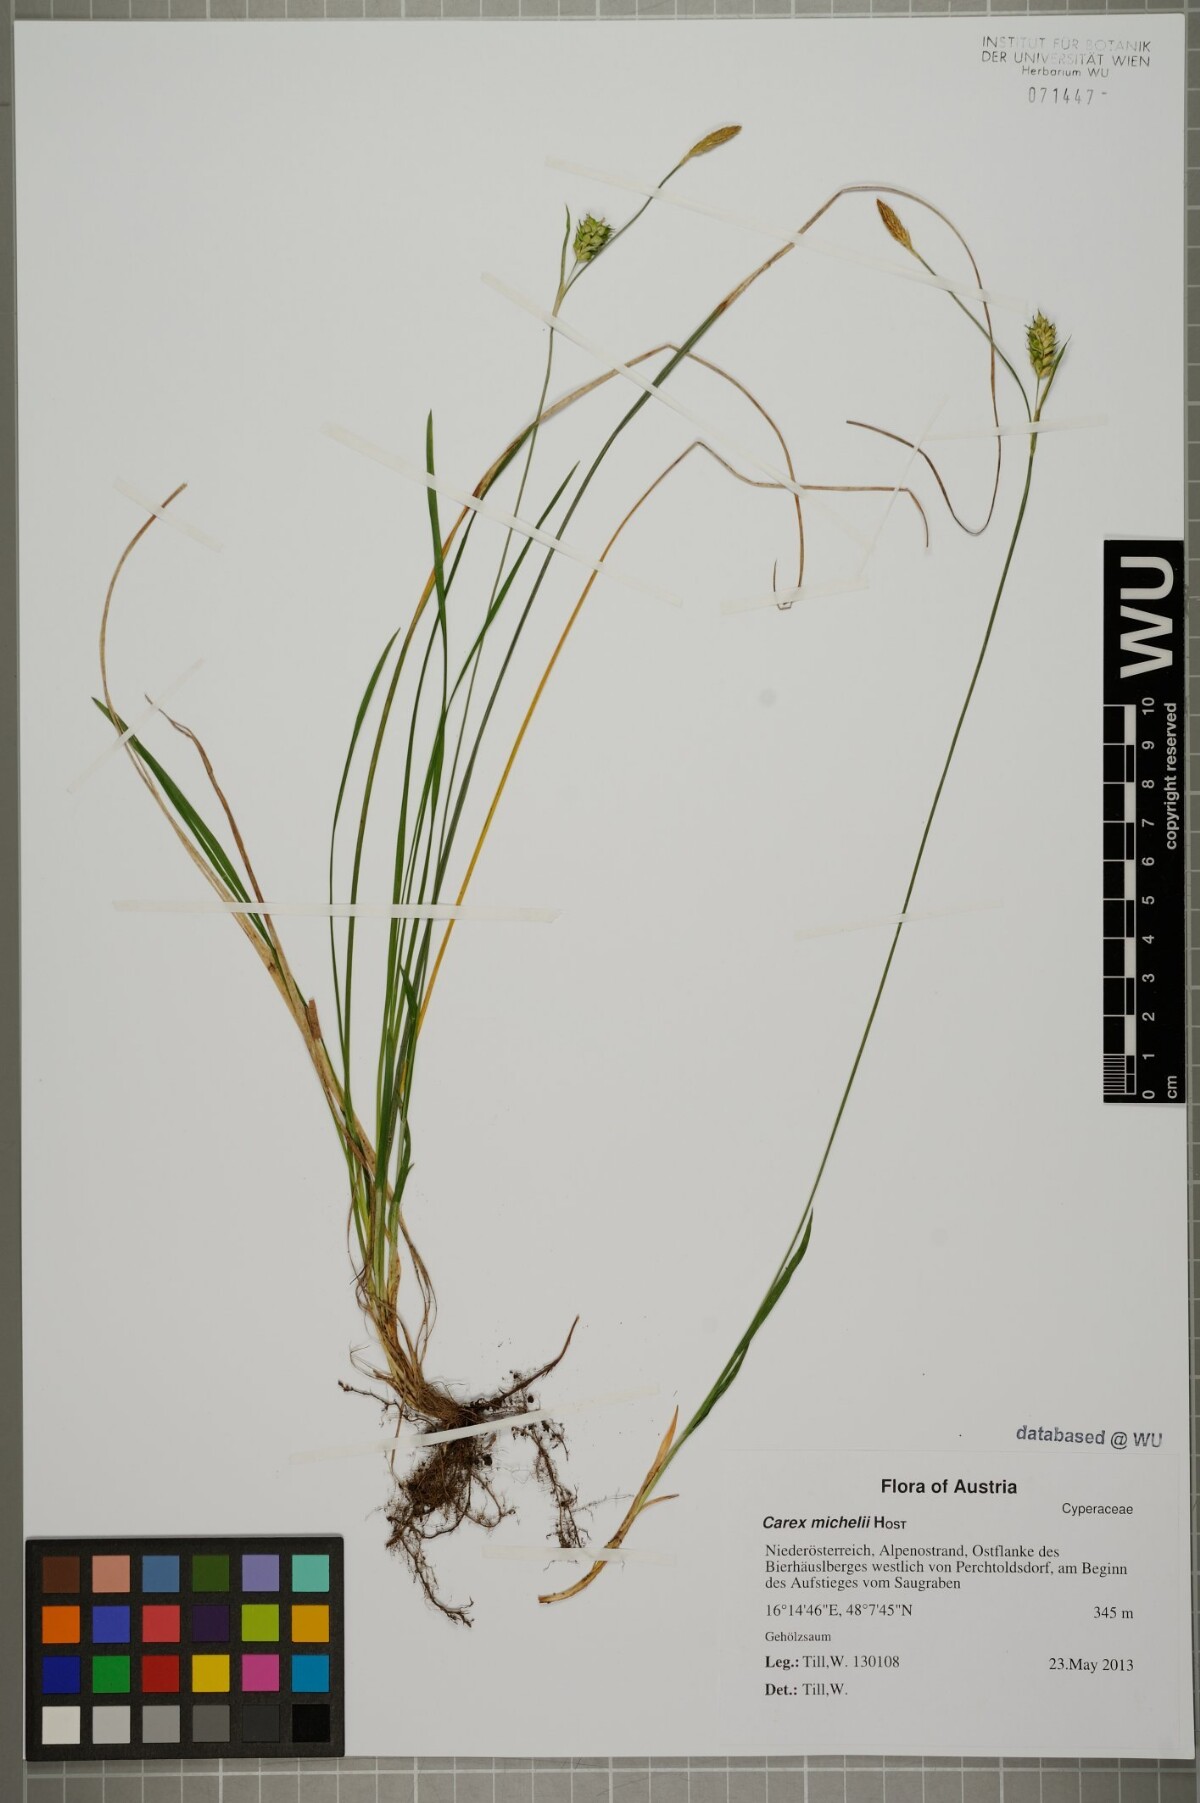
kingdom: Plantae
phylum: Tracheophyta
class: Liliopsida
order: Poales
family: Cyperaceae
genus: Carex
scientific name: Carex michelii
